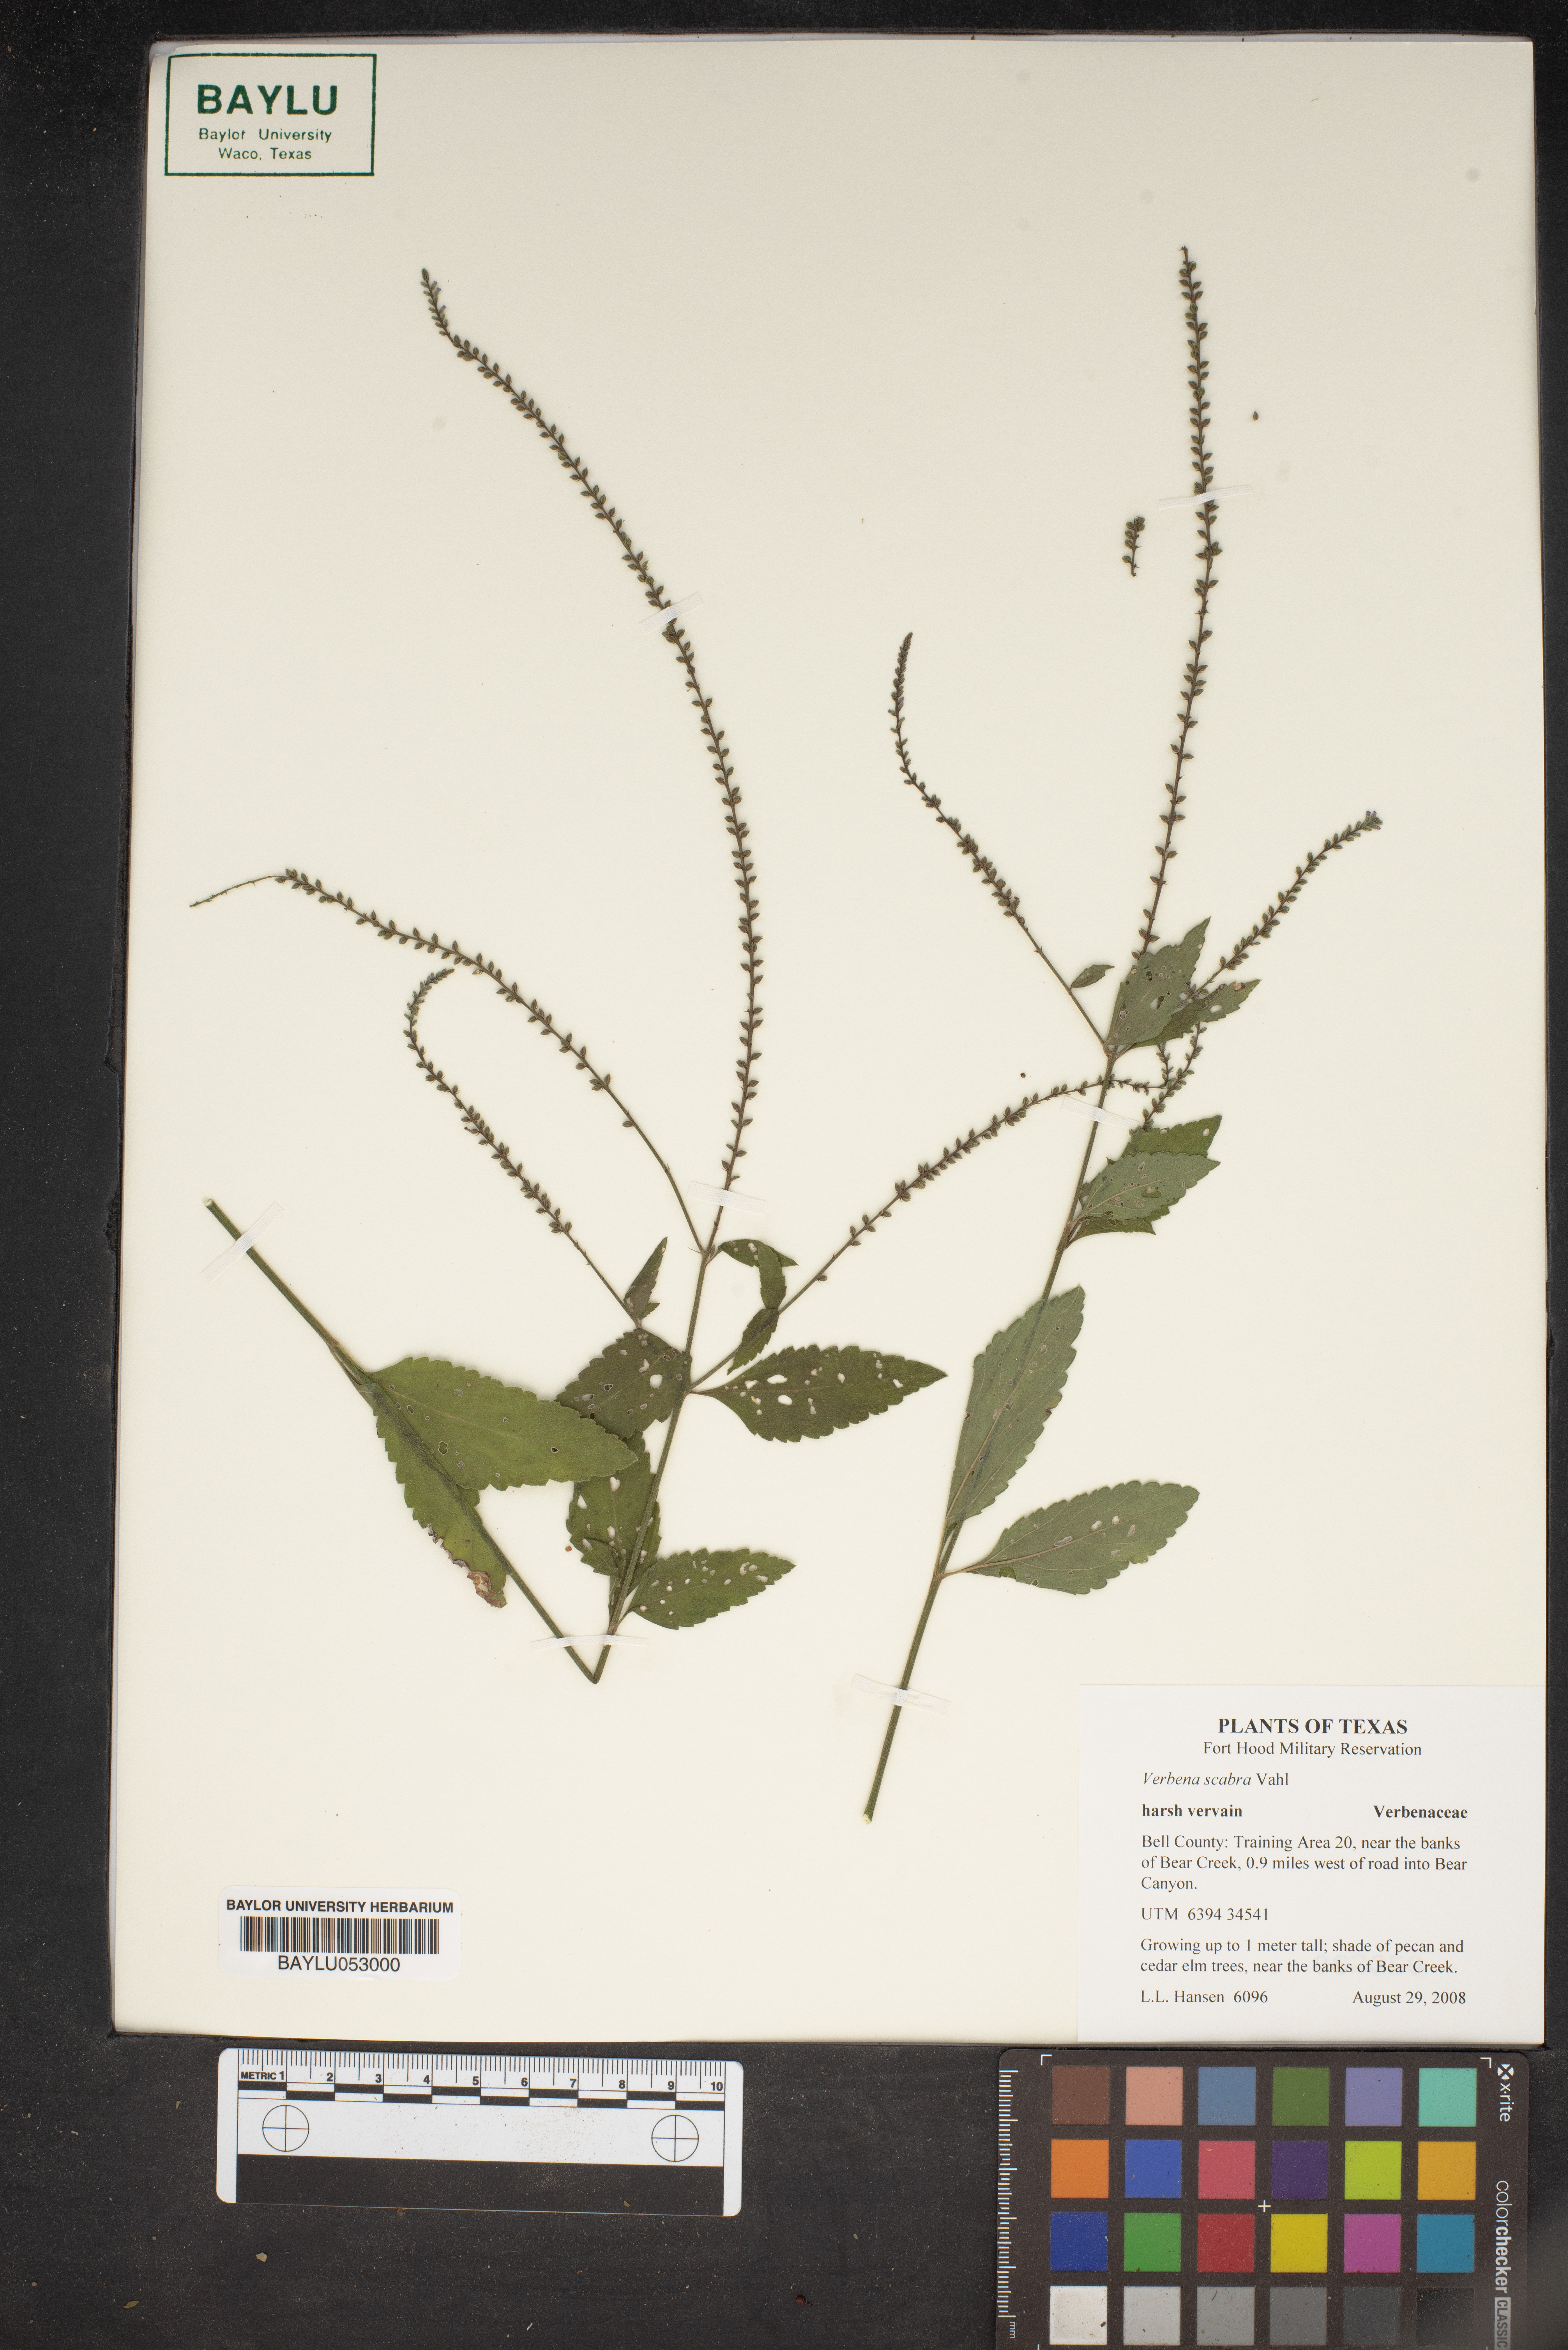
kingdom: Plantae
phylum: Tracheophyta
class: Magnoliopsida
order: Lamiales
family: Verbenaceae
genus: Verbena
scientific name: Verbena scabra
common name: Sandpaper vervain
